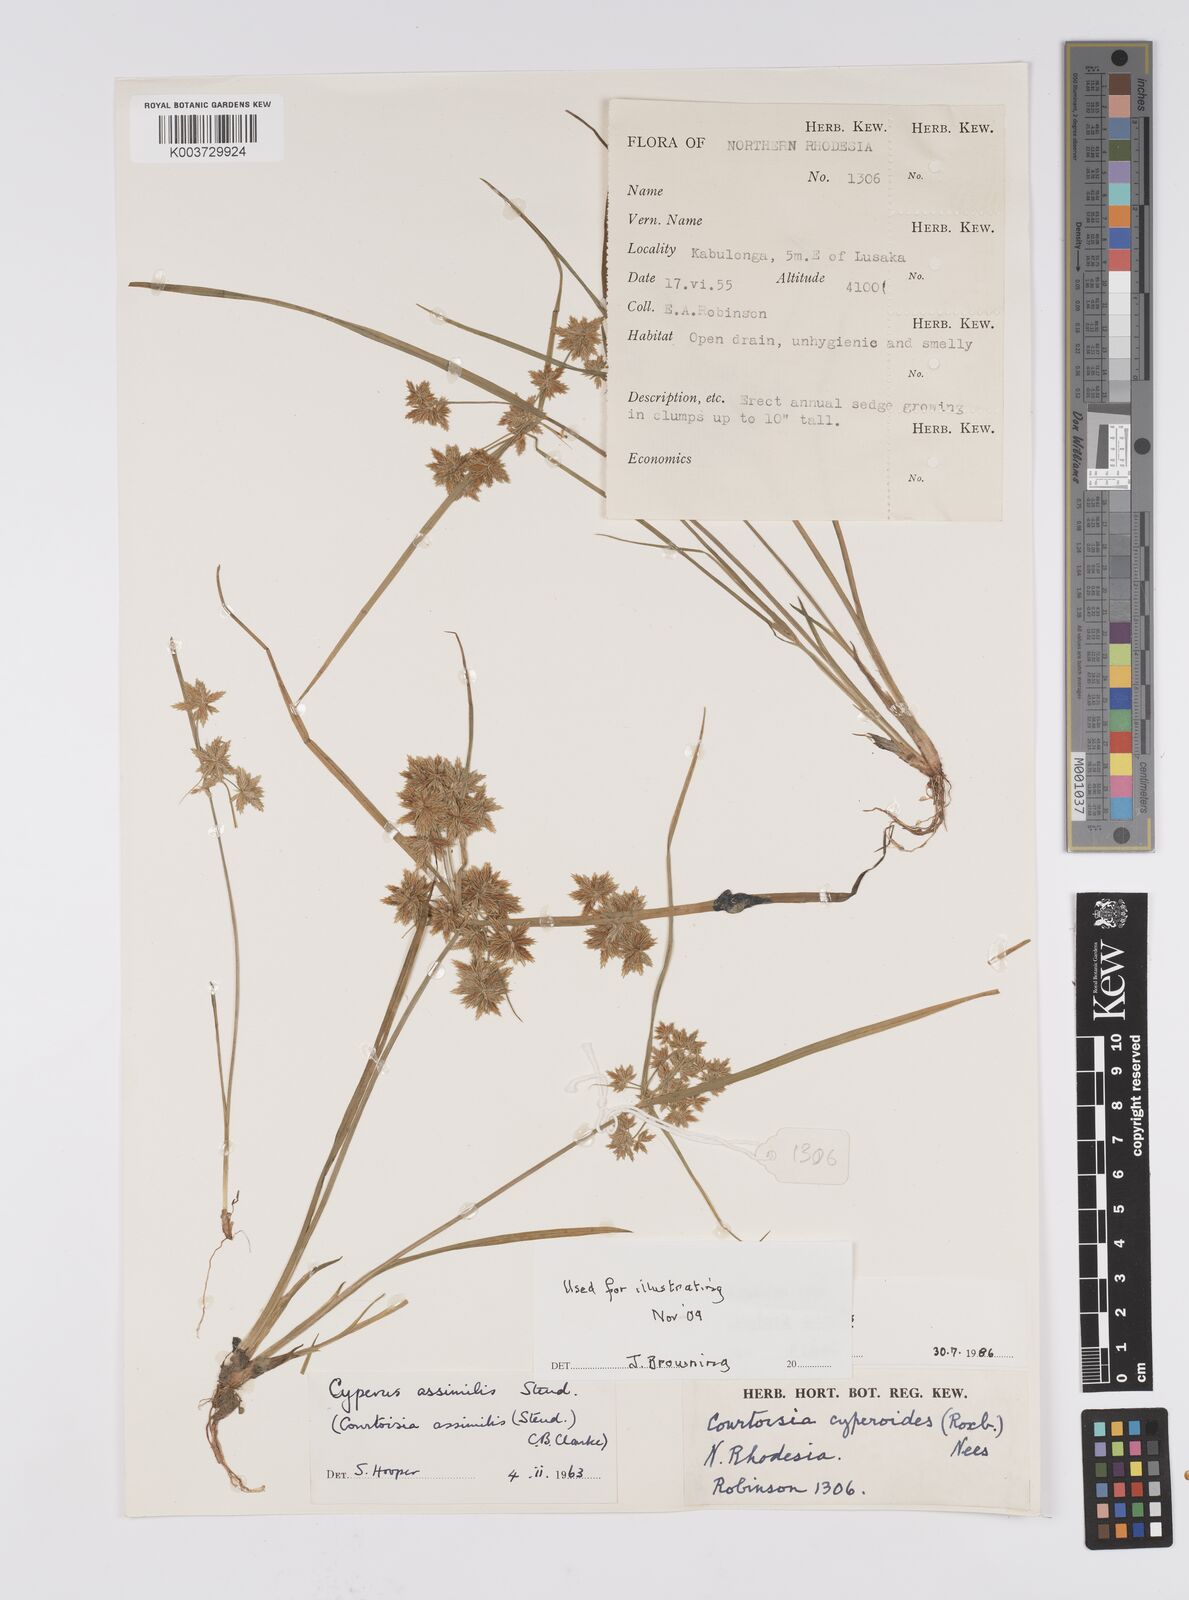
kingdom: Plantae
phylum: Tracheophyta
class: Liliopsida
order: Poales
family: Cyperaceae
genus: Cyperus
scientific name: Cyperus assimilis
